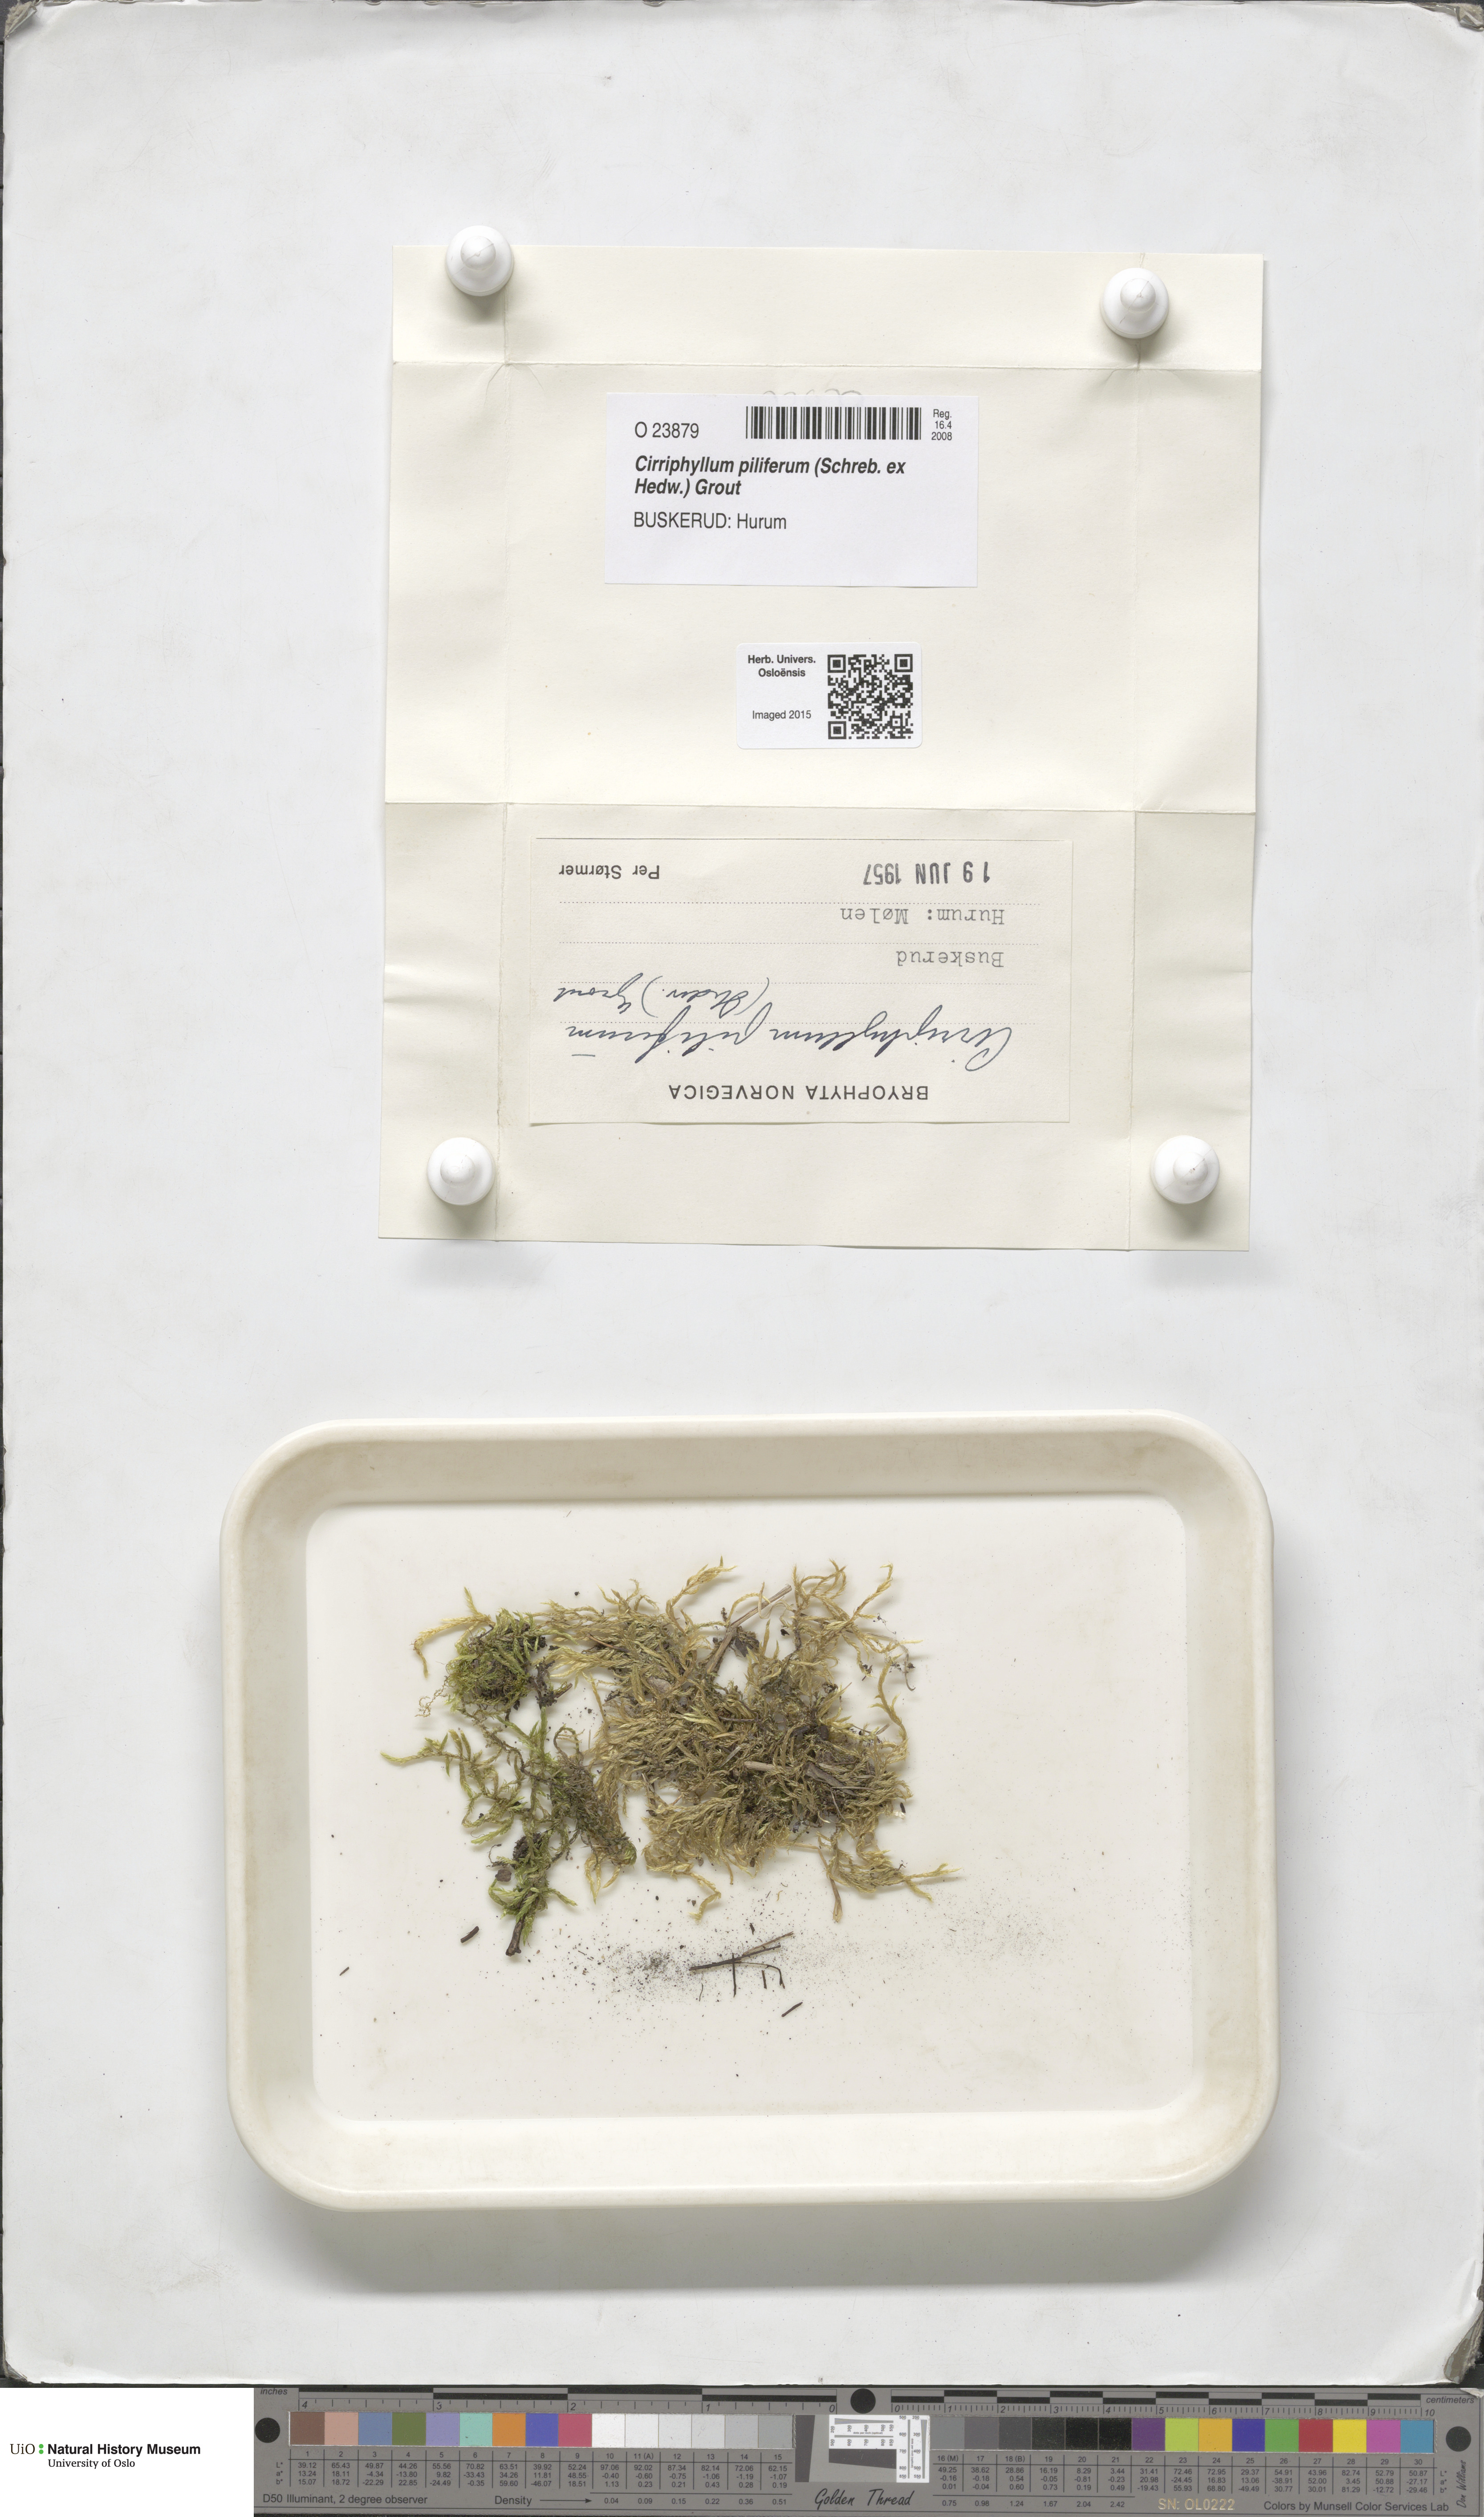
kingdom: Plantae
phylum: Bryophyta
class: Bryopsida
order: Hypnales
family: Brachytheciaceae
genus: Cirriphyllum
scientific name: Cirriphyllum piliferum
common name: Hair-pointed moss
